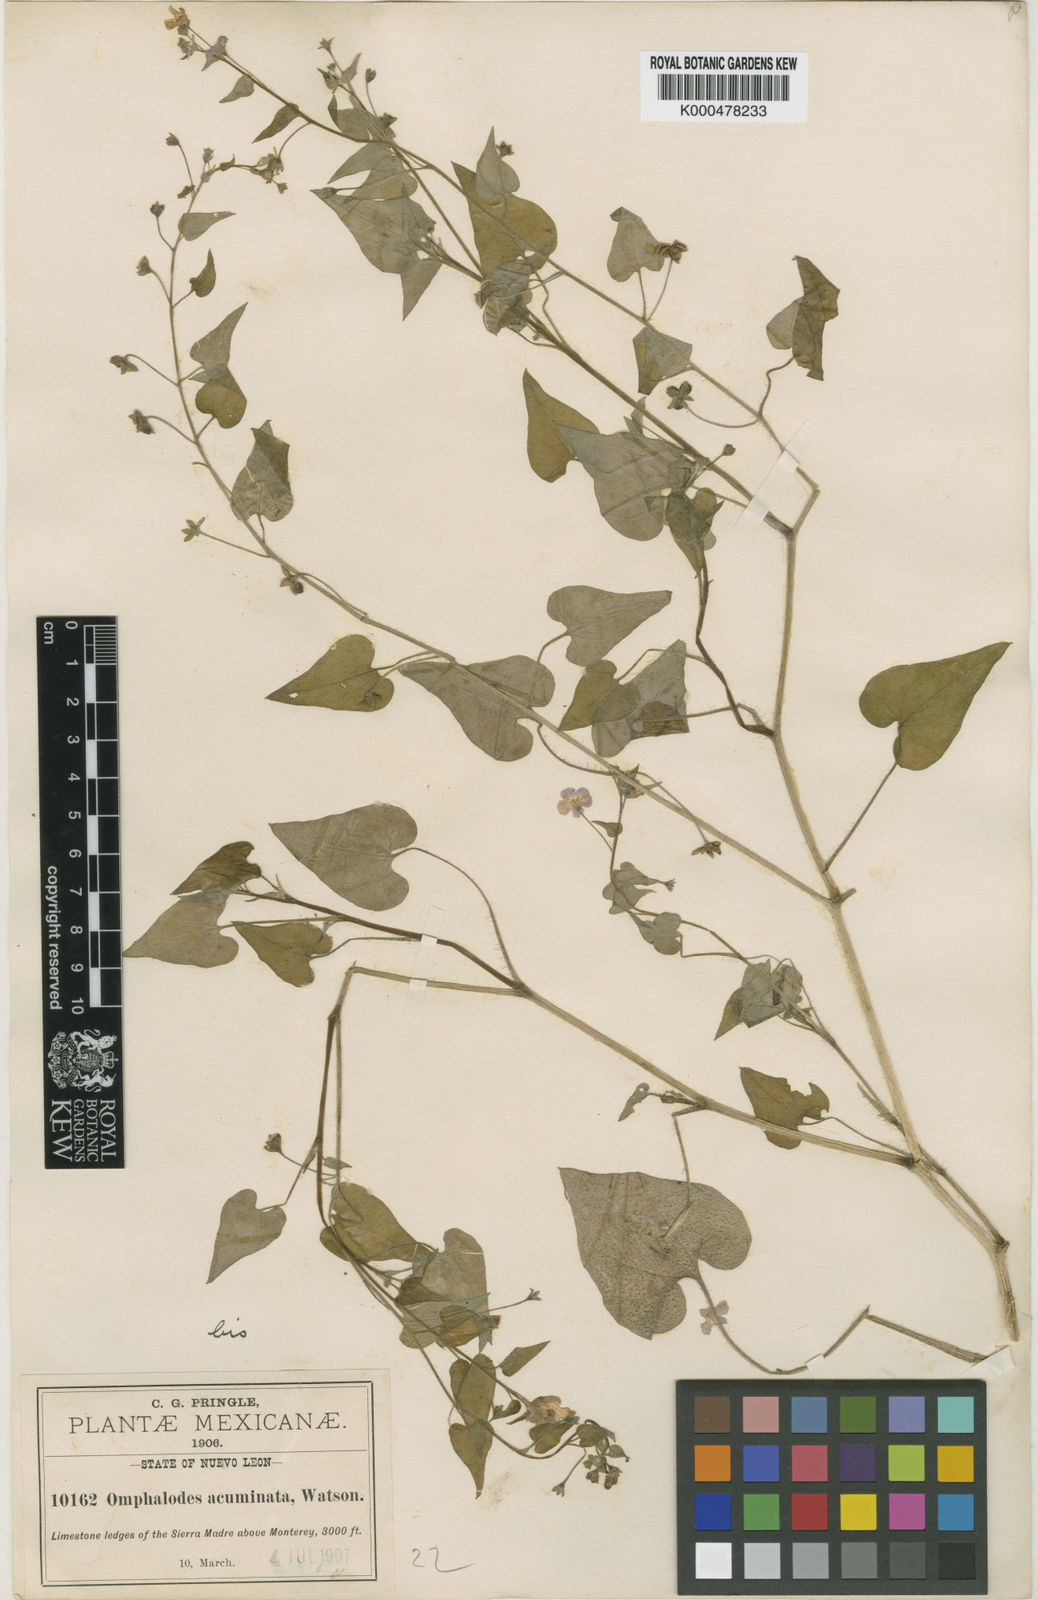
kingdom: Plantae
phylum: Tracheophyta
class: Magnoliopsida
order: Boraginales
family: Boraginaceae
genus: Mimophytum
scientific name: Mimophytum cardiophyllum
